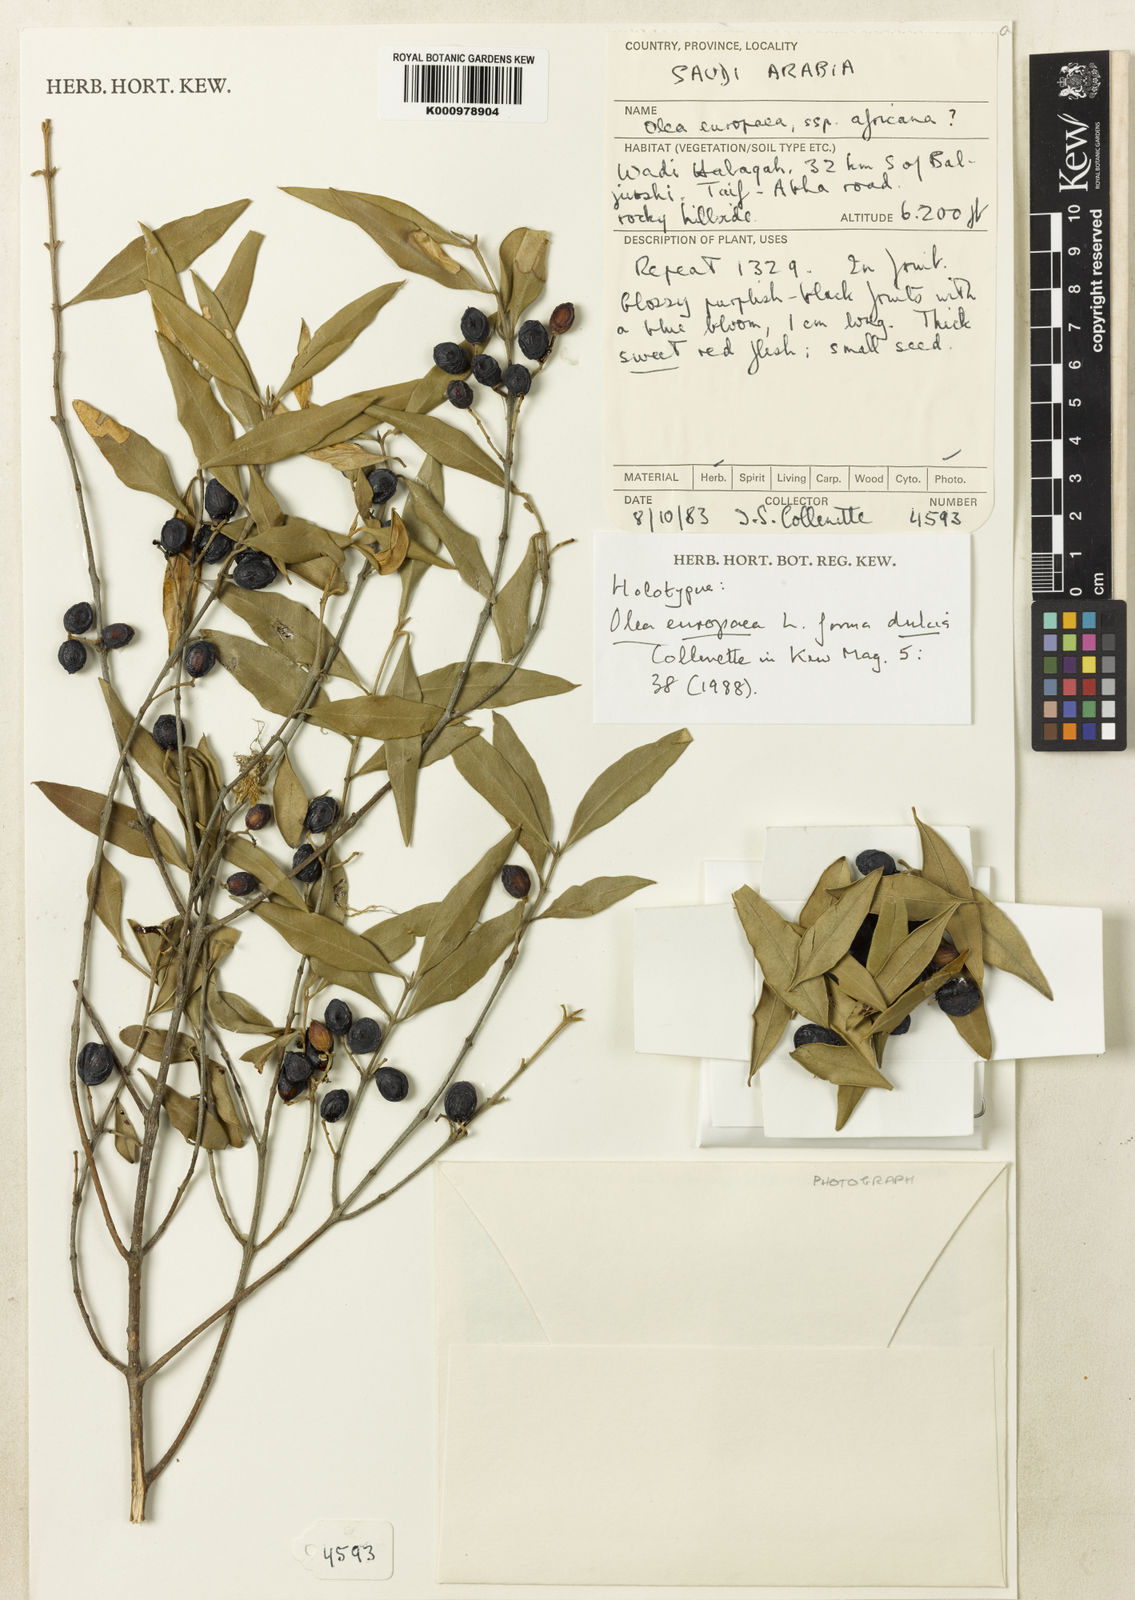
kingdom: Plantae
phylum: Tracheophyta
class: Magnoliopsida
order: Lamiales
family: Oleaceae
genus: Olea
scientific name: Olea europaea
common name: Olive
